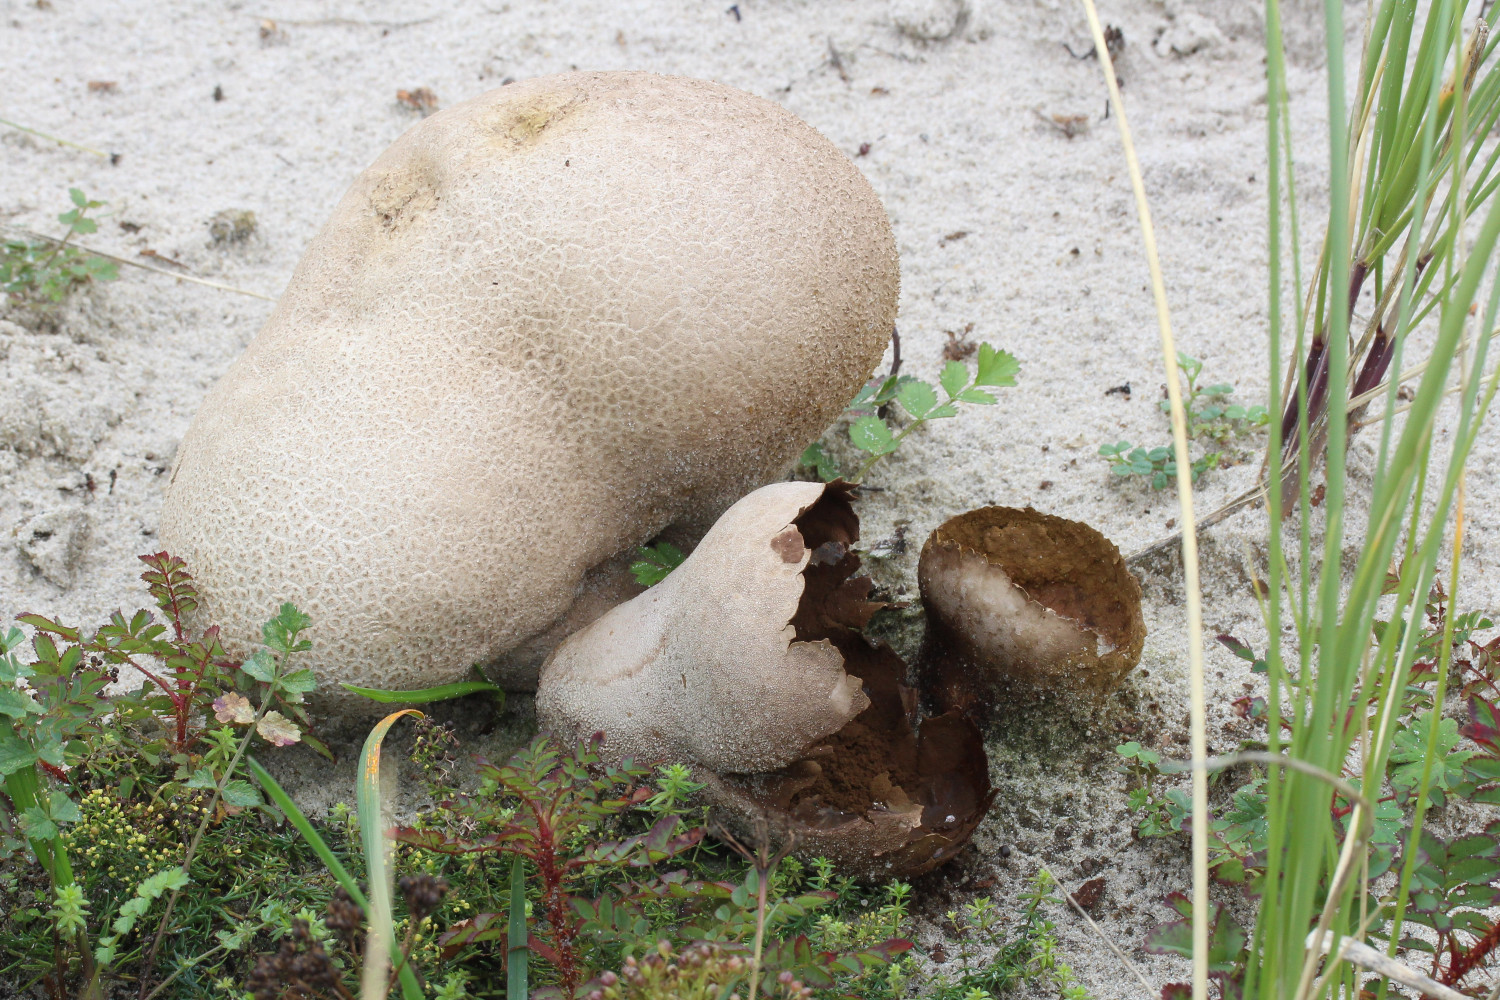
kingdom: Fungi
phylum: Basidiomycota
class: Agaricomycetes
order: Agaricales
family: Lycoperdaceae
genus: Bovistella
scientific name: Bovistella utriformis
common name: skællet støvbold
